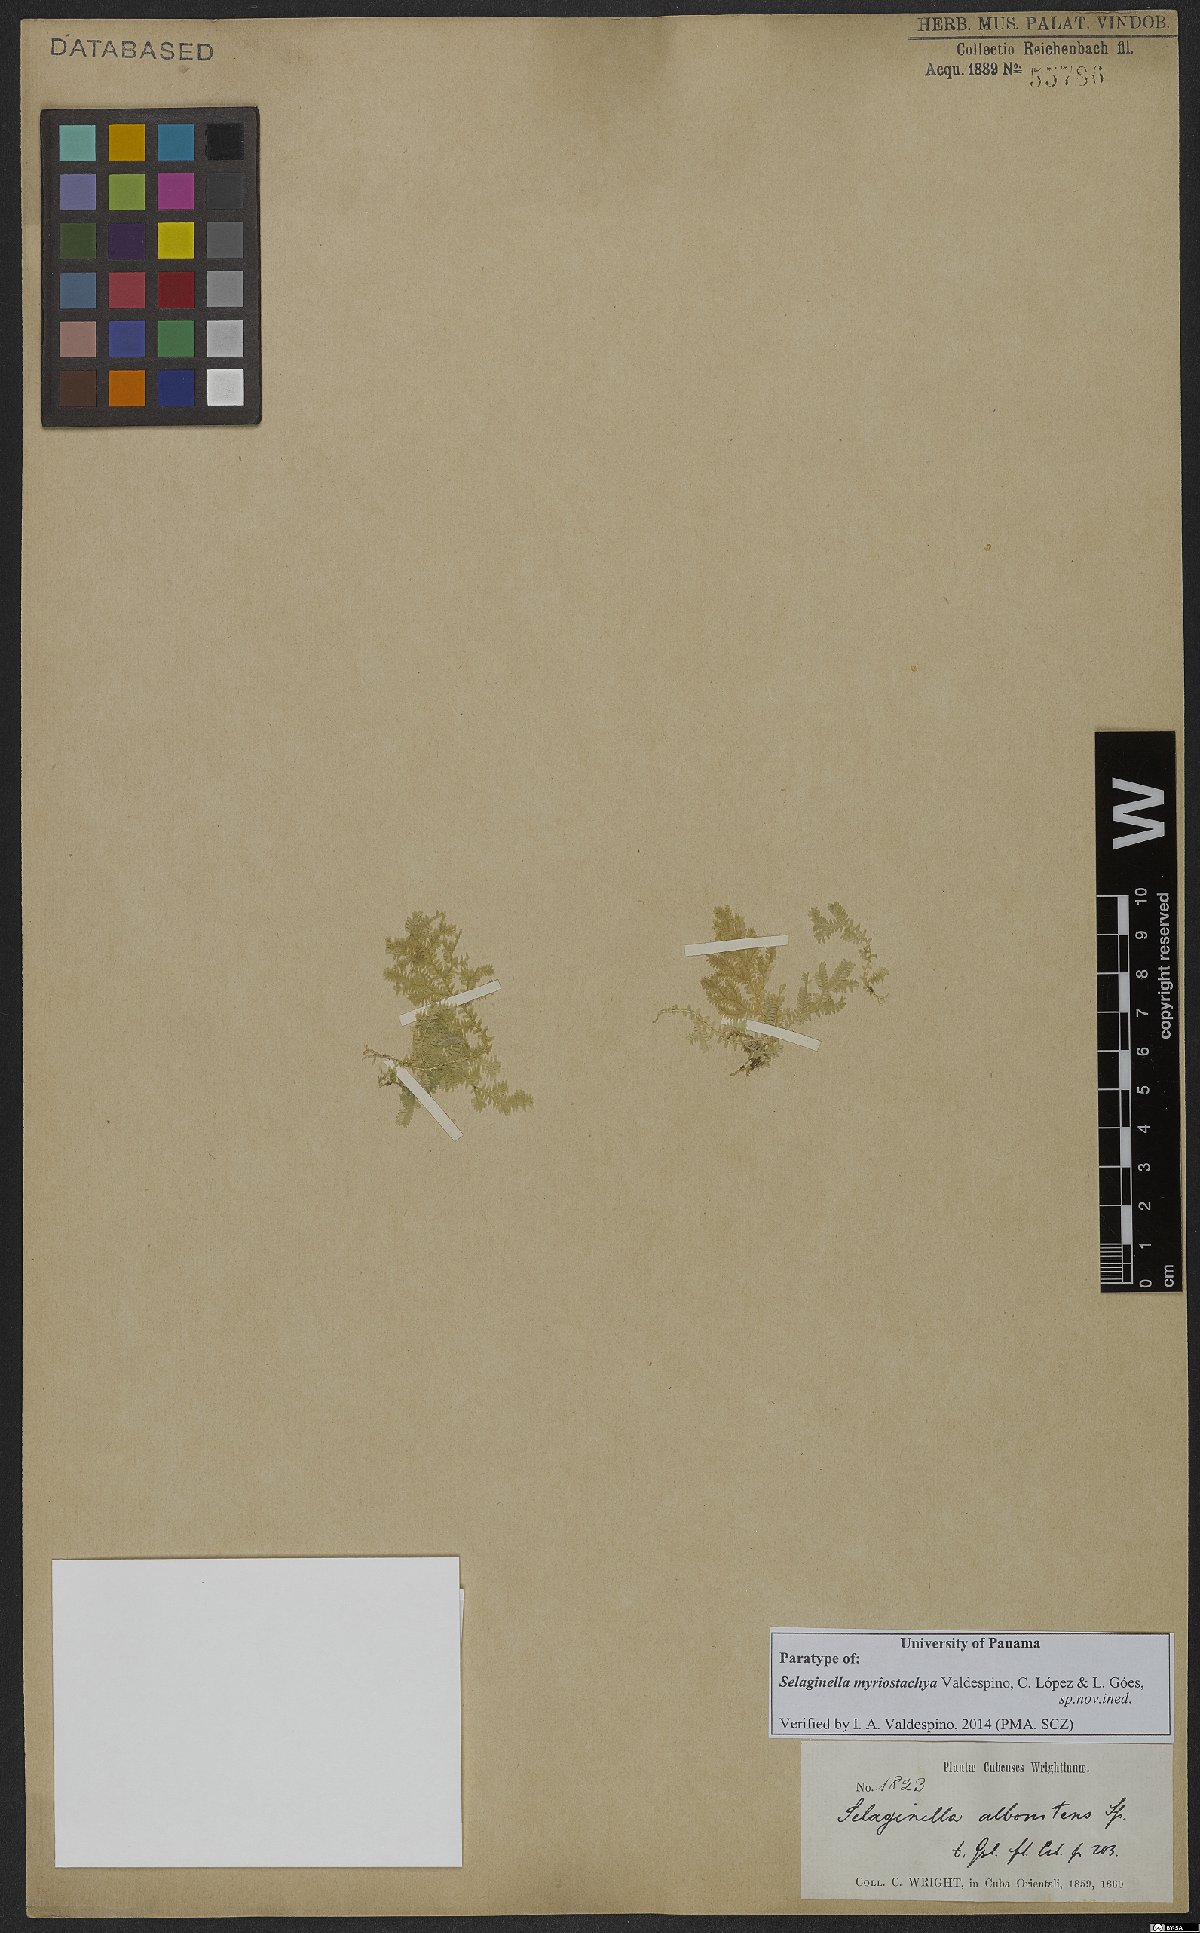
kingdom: Plantae
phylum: Tracheophyta
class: Lycopodiopsida
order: Selaginellales
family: Selaginellaceae
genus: Selaginella
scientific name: Selaginella myriostachya
